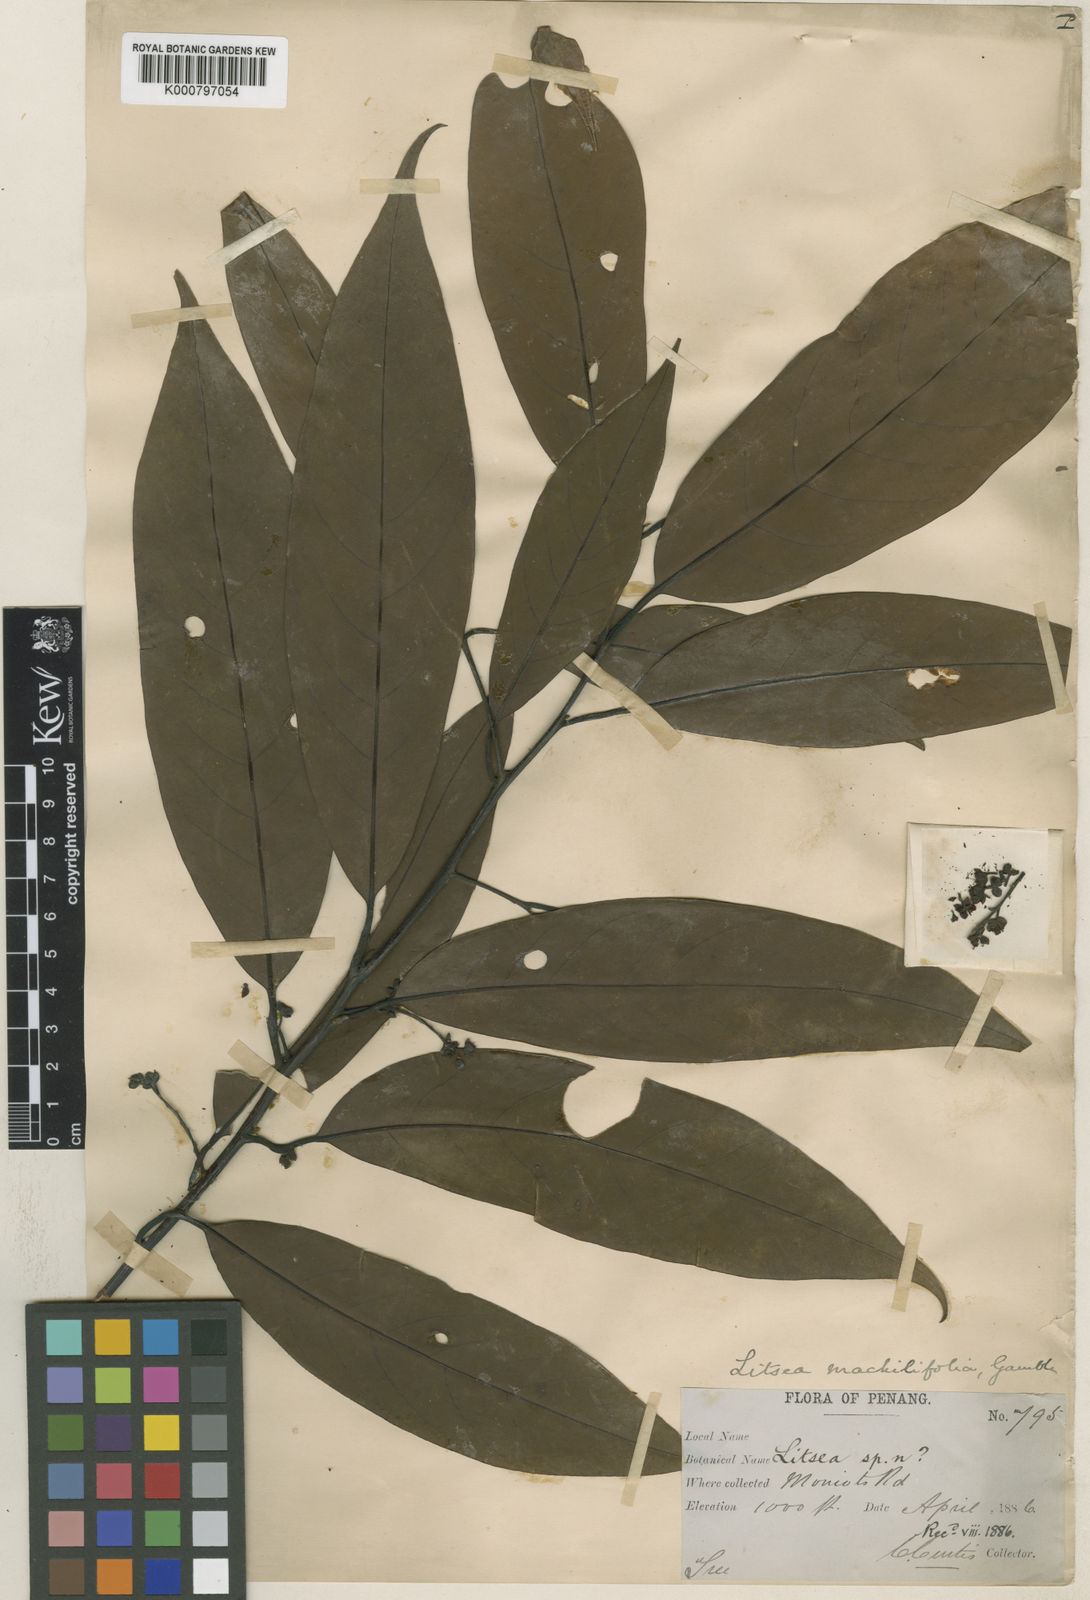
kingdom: Plantae
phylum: Tracheophyta
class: Magnoliopsida
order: Laurales
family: Lauraceae
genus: Litsea
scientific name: Litsea machilifolia
